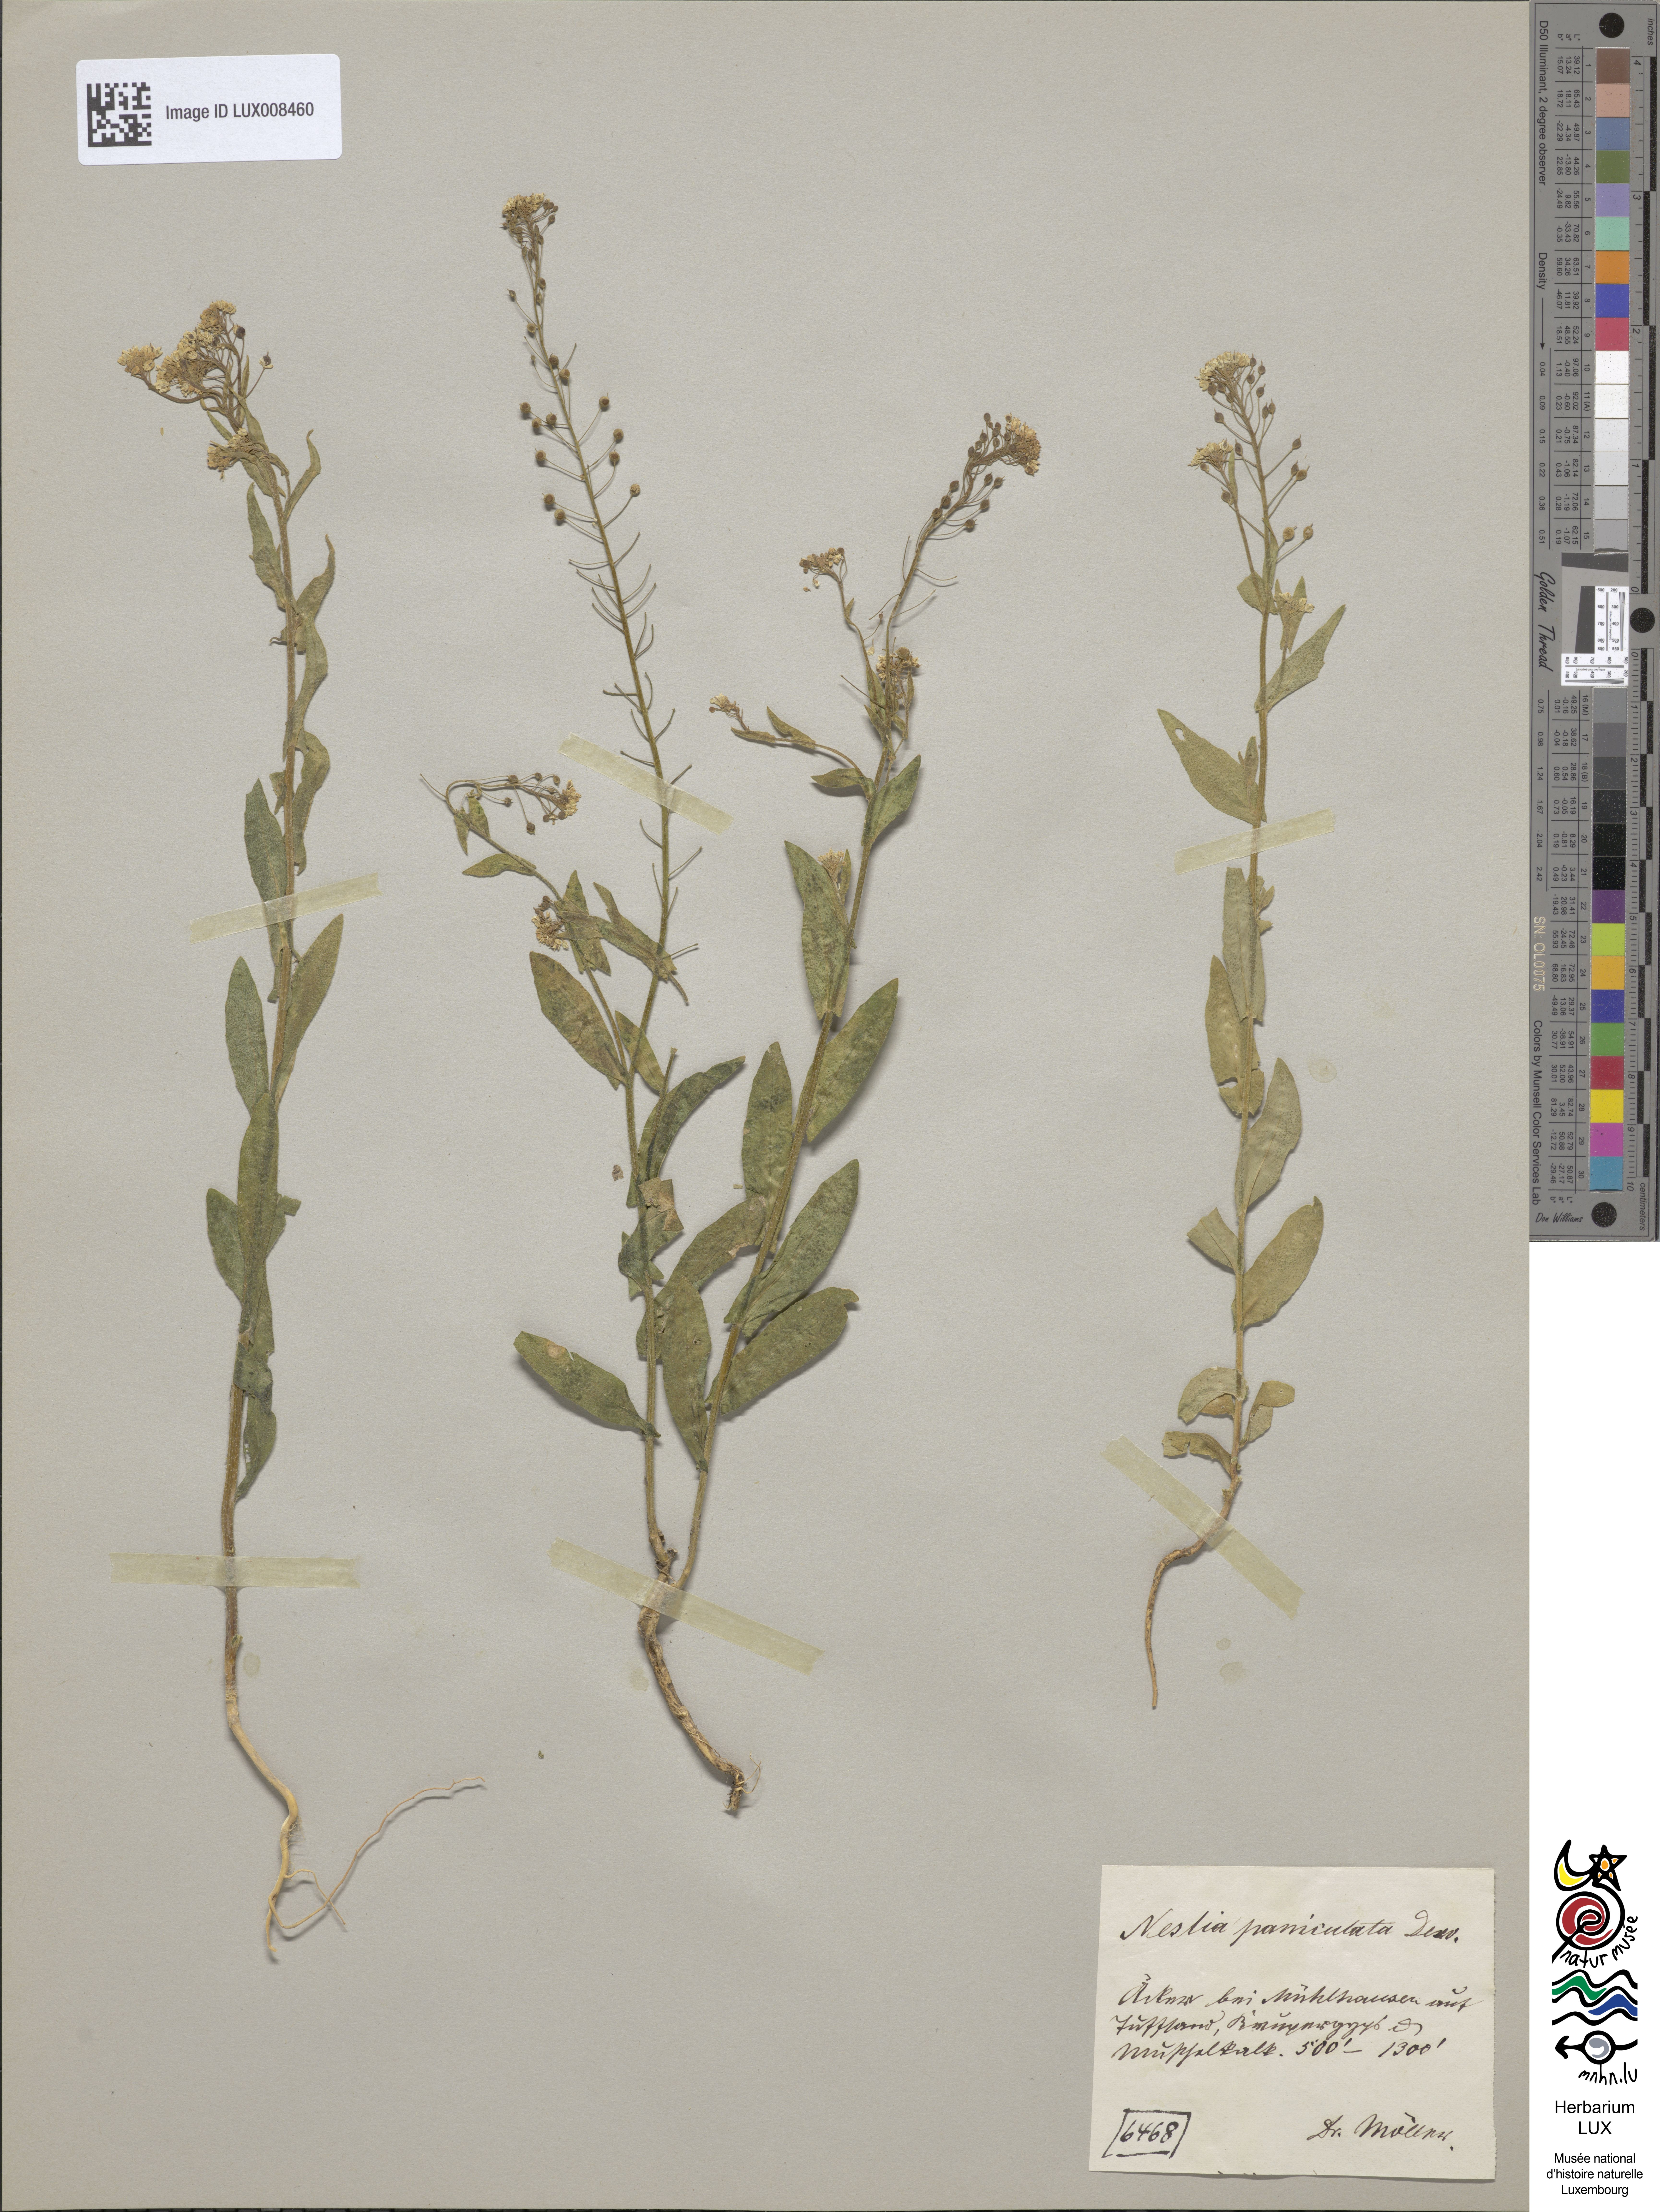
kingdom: Plantae
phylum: Tracheophyta
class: Magnoliopsida
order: Brassicales
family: Brassicaceae
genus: Neslia
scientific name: Neslia paniculata
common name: Ball mustard
